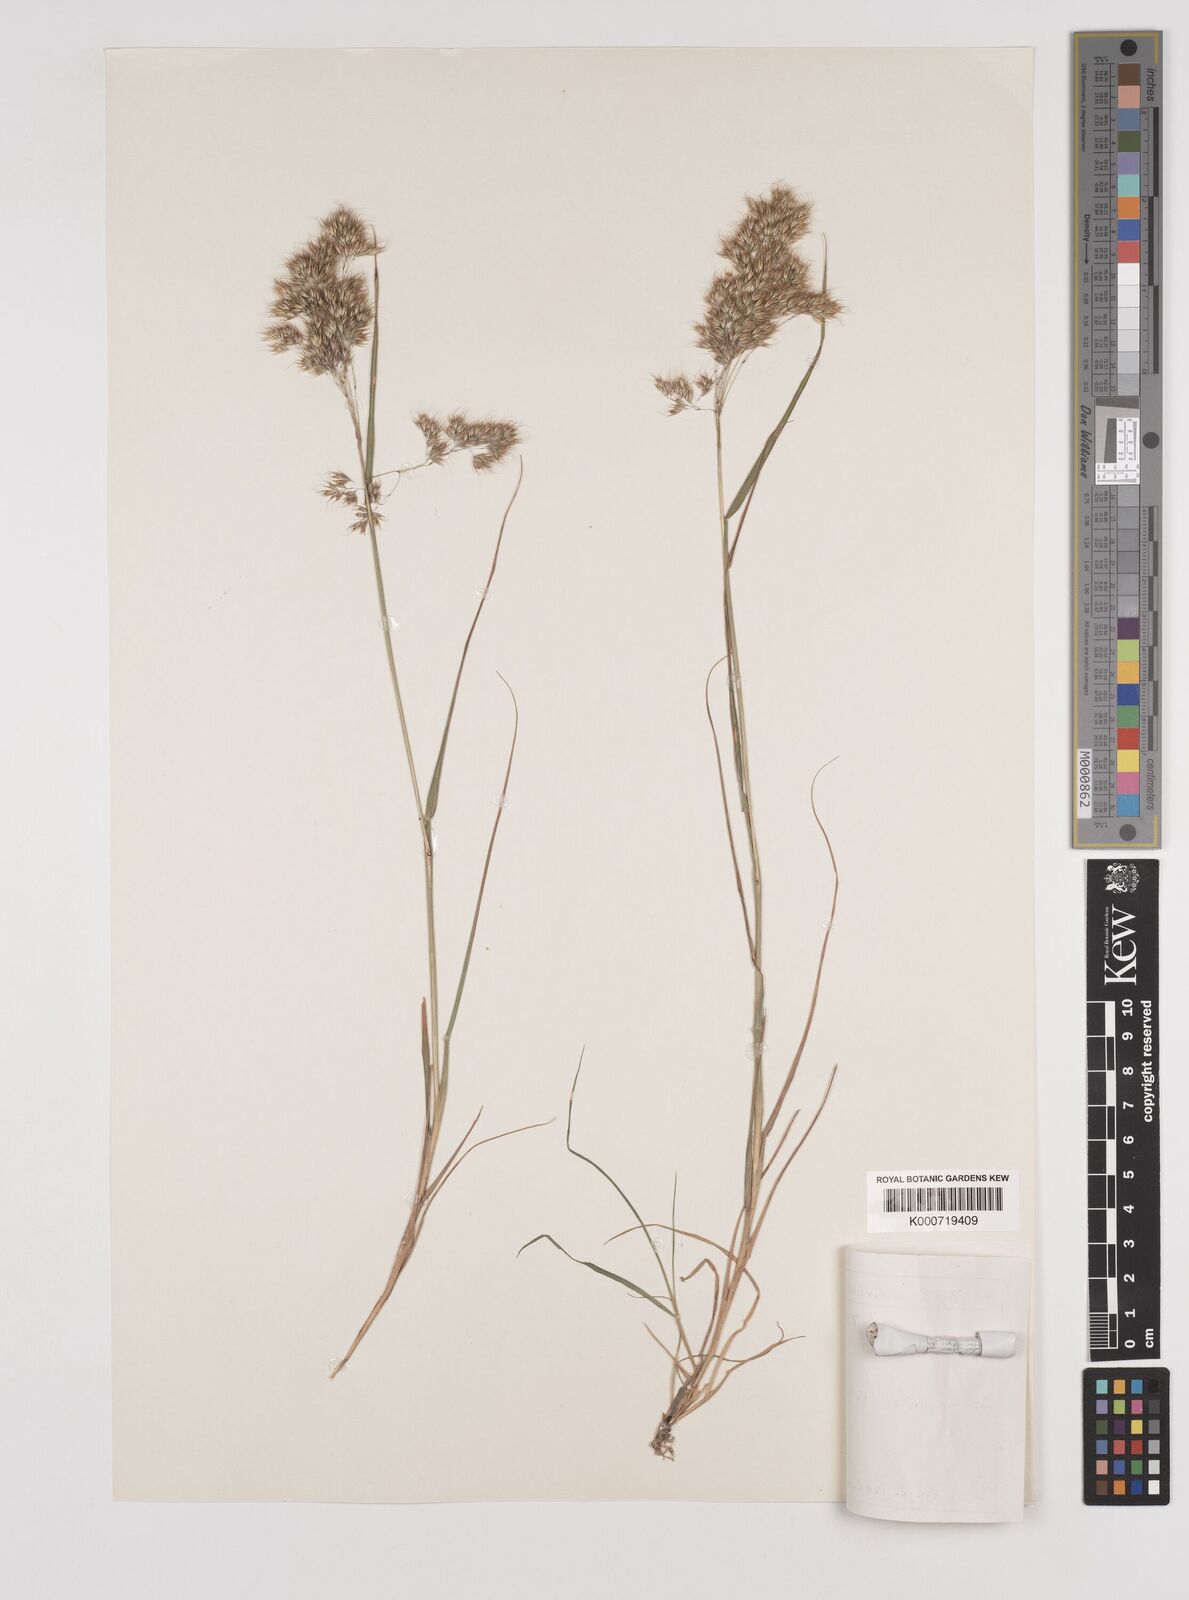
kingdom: Plantae
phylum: Tracheophyta
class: Liliopsida
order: Poales
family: Poaceae
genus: Pentameris
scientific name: Pentameris triseta
